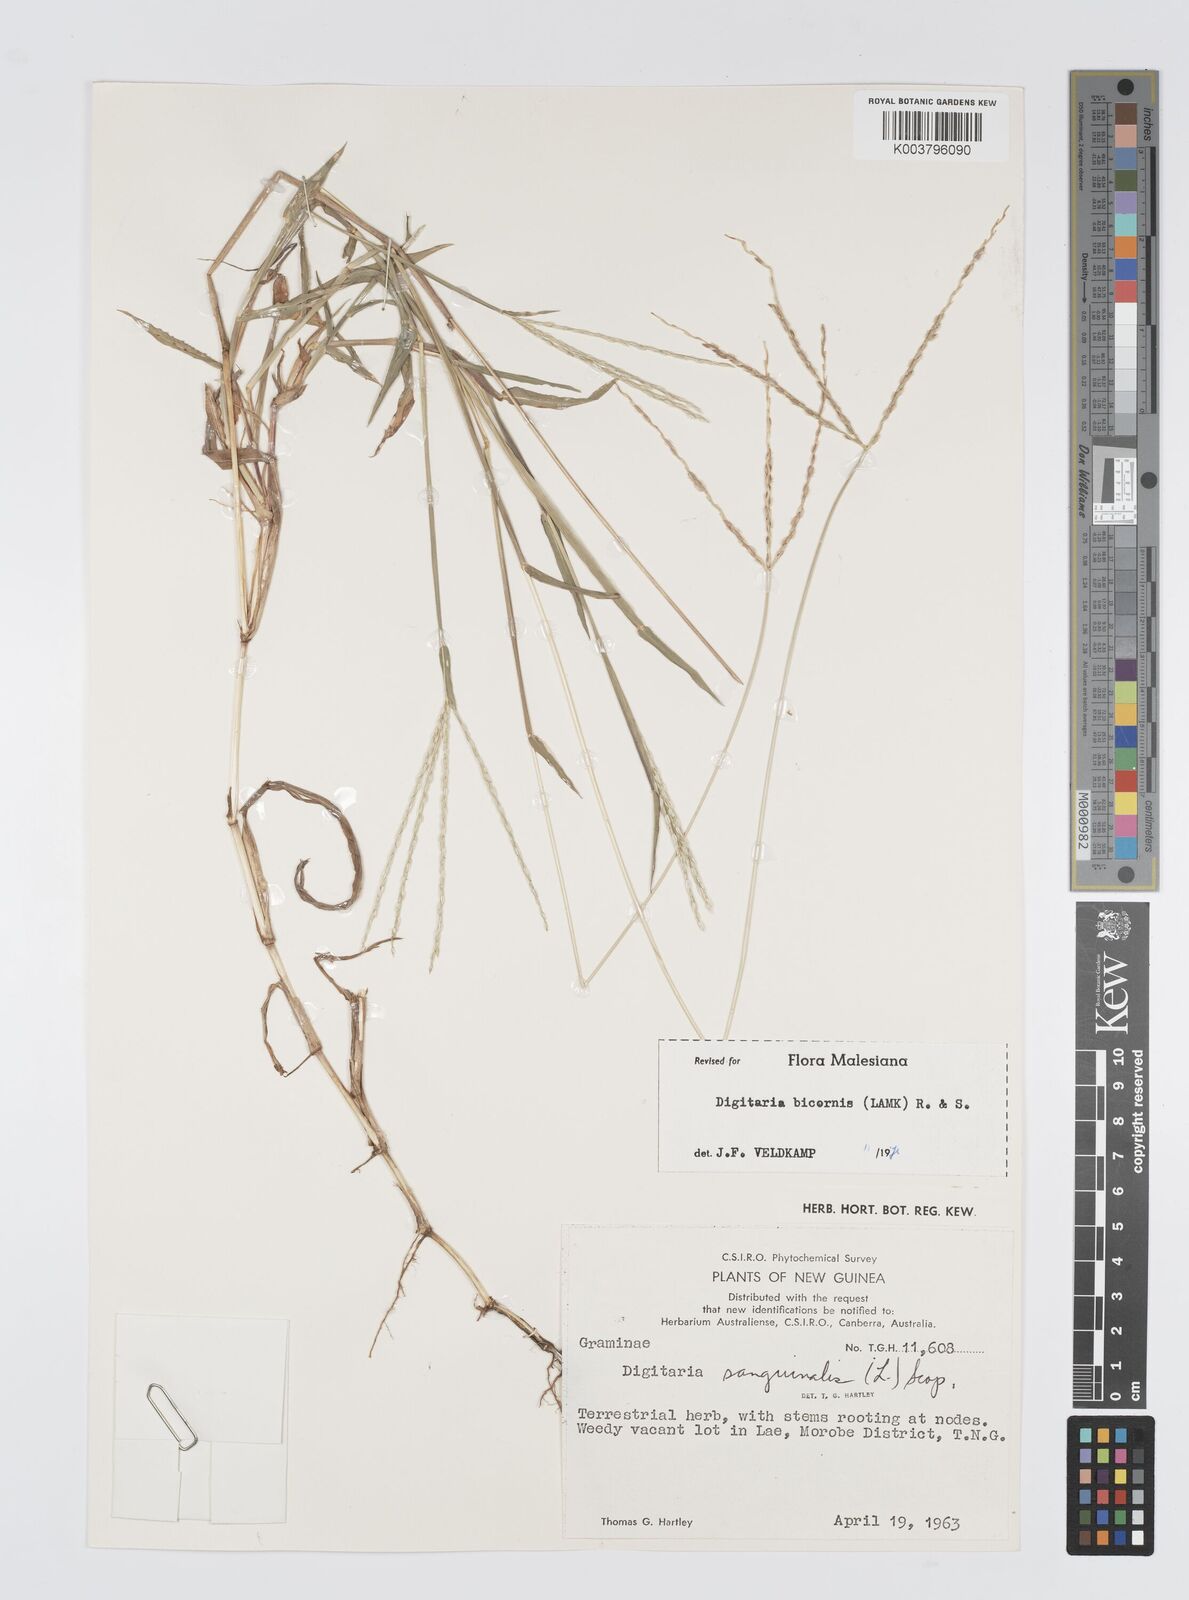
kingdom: Plantae
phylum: Tracheophyta
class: Liliopsida
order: Poales
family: Poaceae
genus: Digitaria
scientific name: Digitaria ciliaris
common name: Tropical finger-grass
